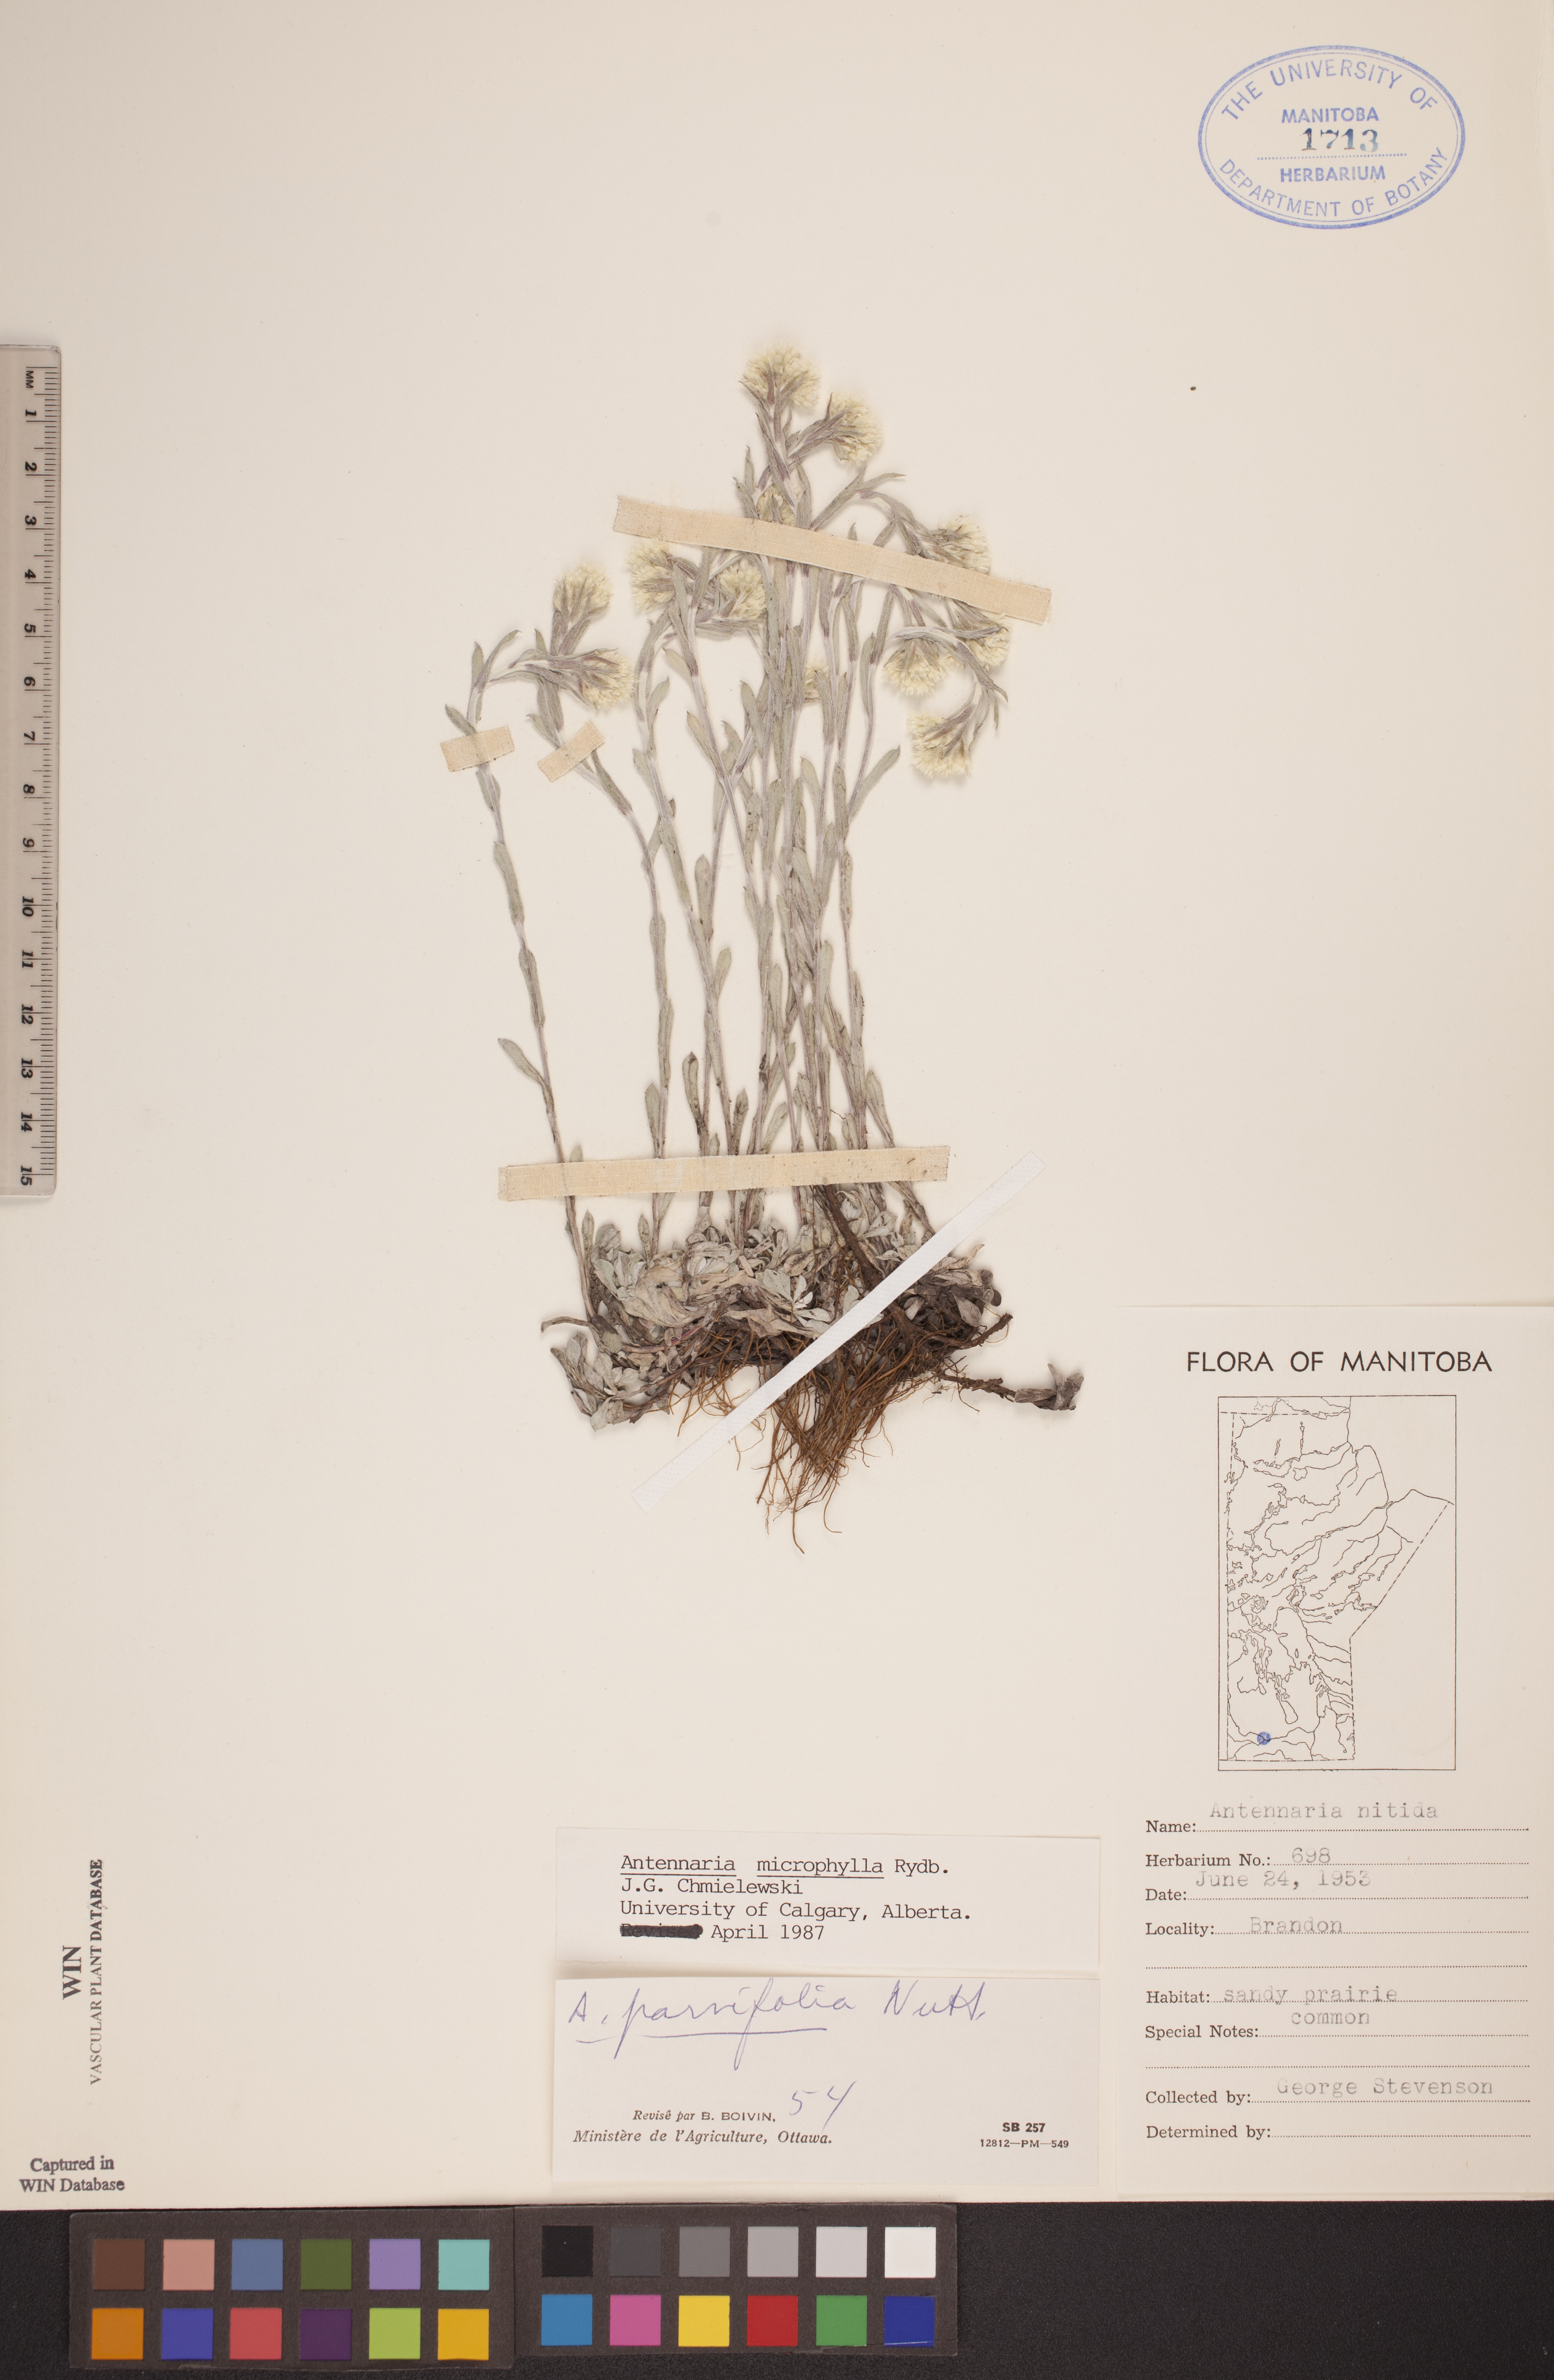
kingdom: Plantae
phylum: Tracheophyta
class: Magnoliopsida
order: Asterales
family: Asteraceae
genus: Antennaria
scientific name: Antennaria microphylla
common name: Littleleaf pussytoes
